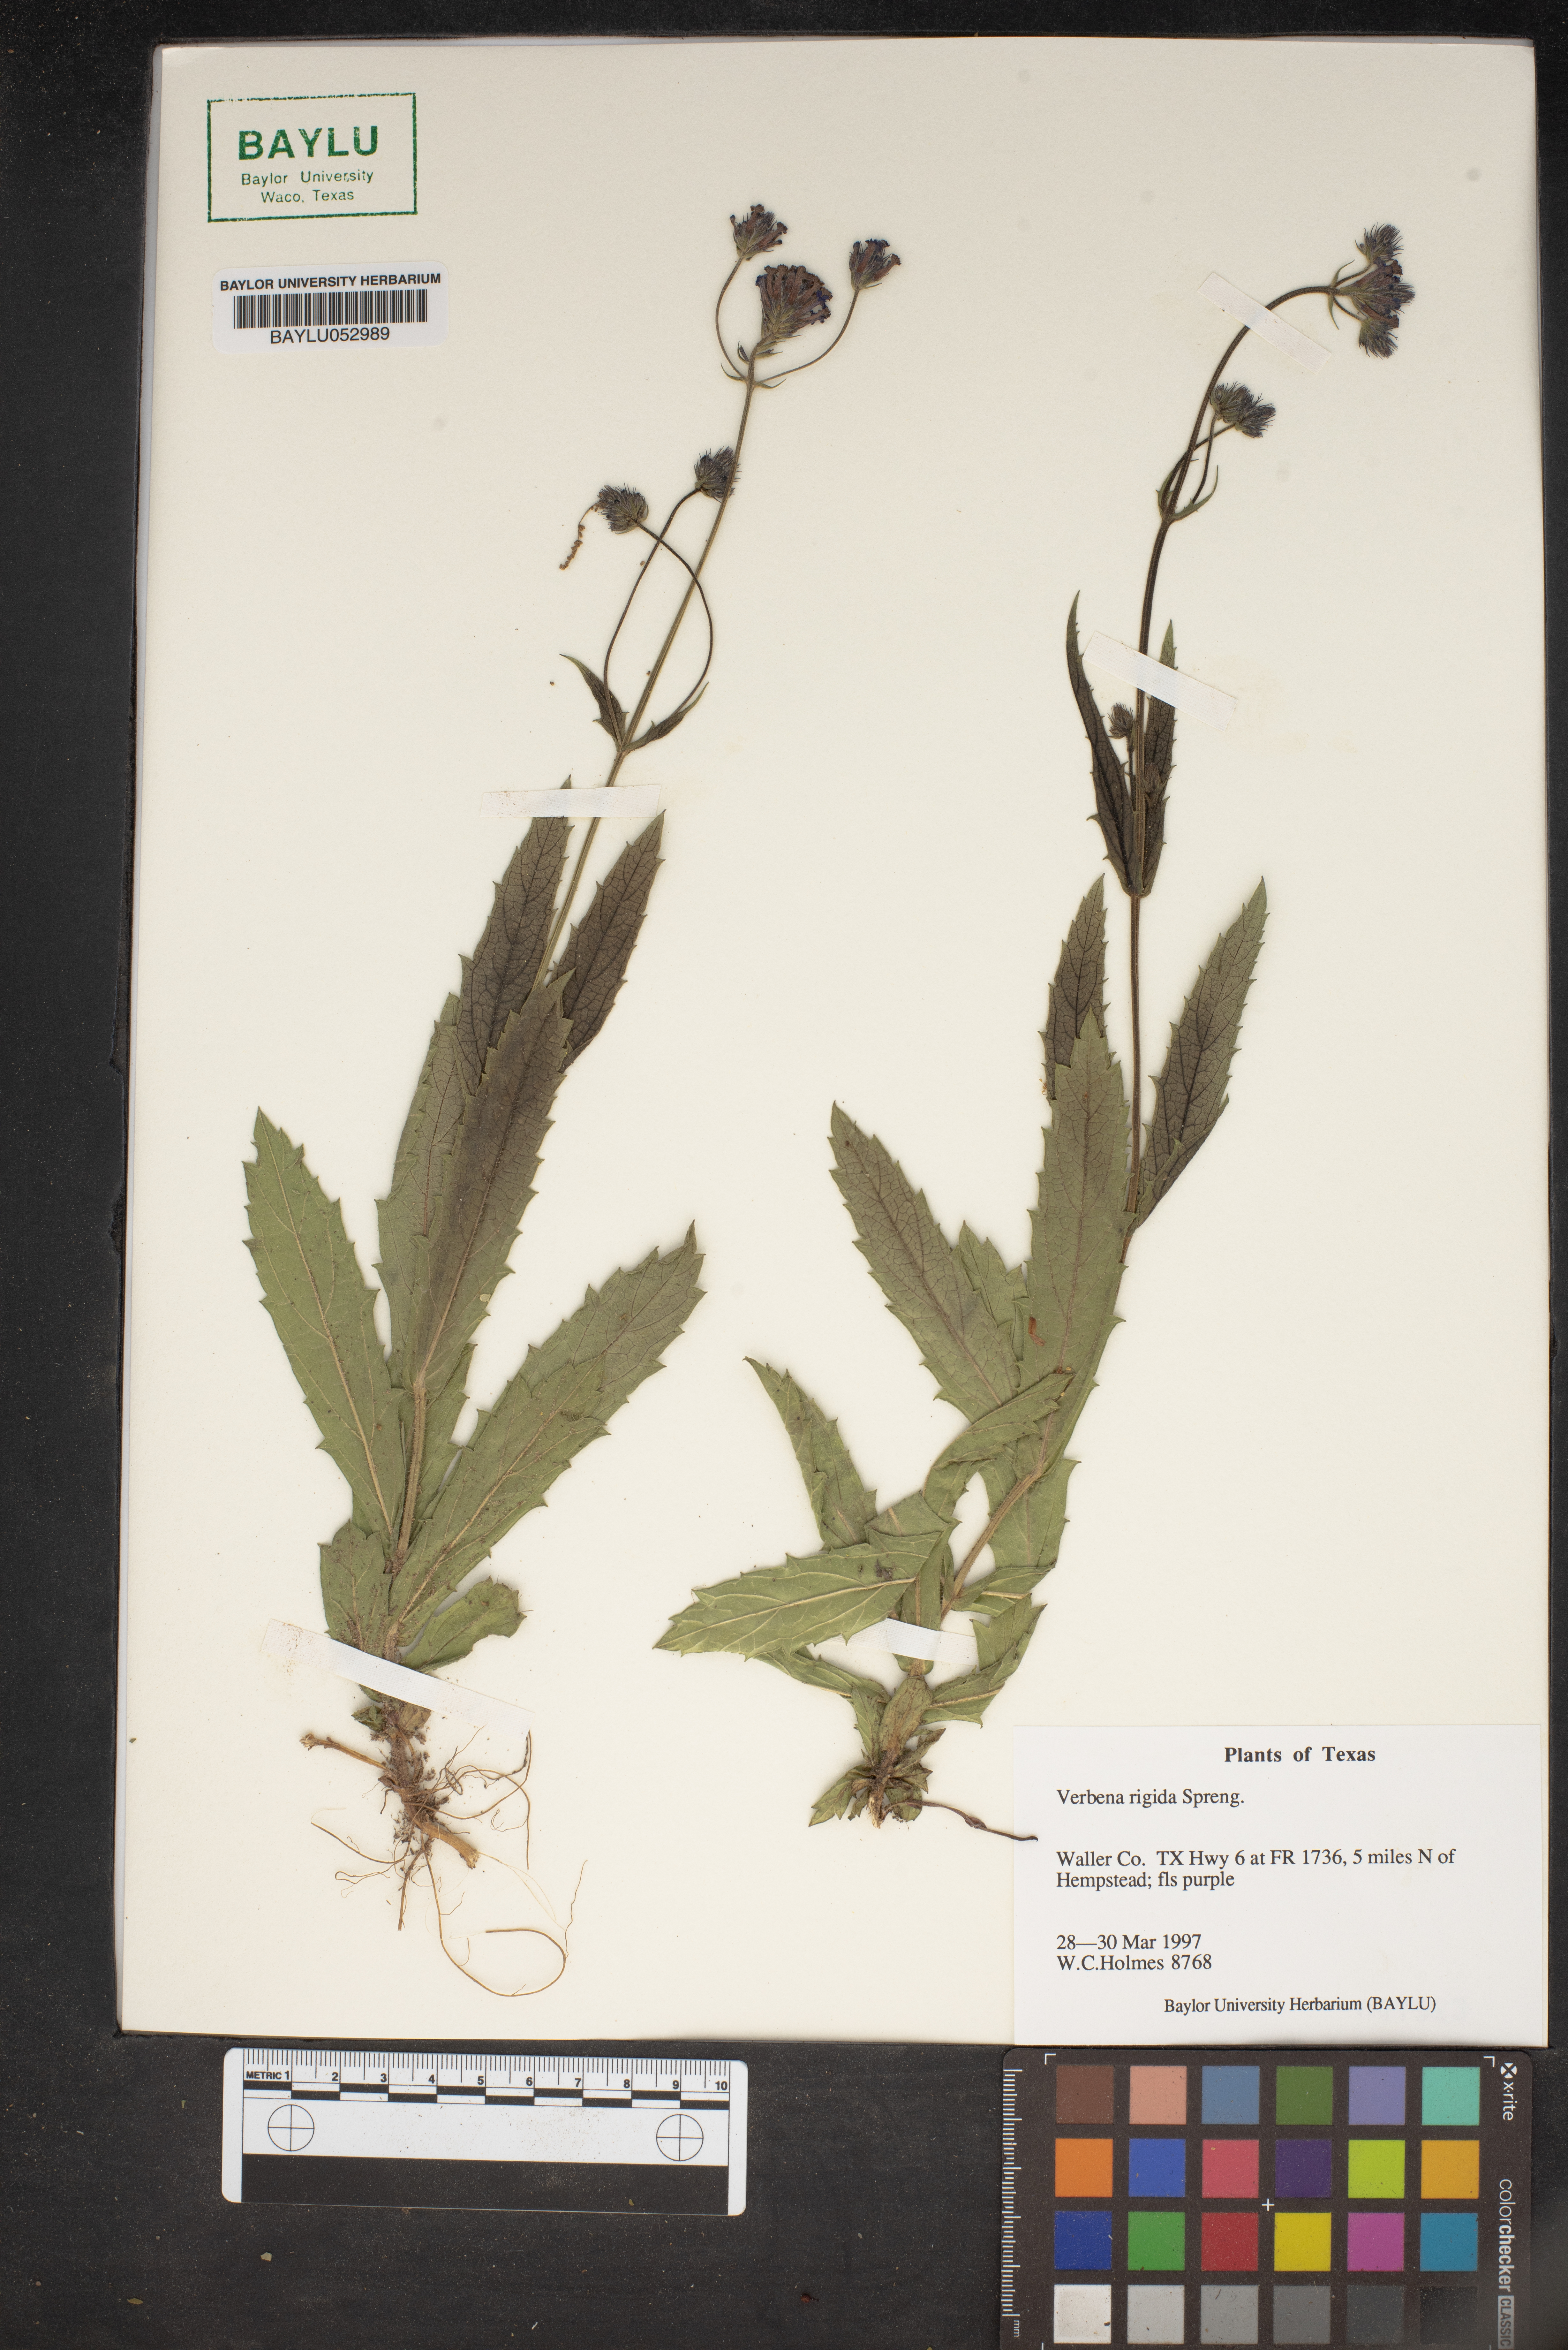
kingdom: Plantae
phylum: Tracheophyta
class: Magnoliopsida
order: Lamiales
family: Verbenaceae
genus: Verbena
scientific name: Verbena rigida
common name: Slender vervain
